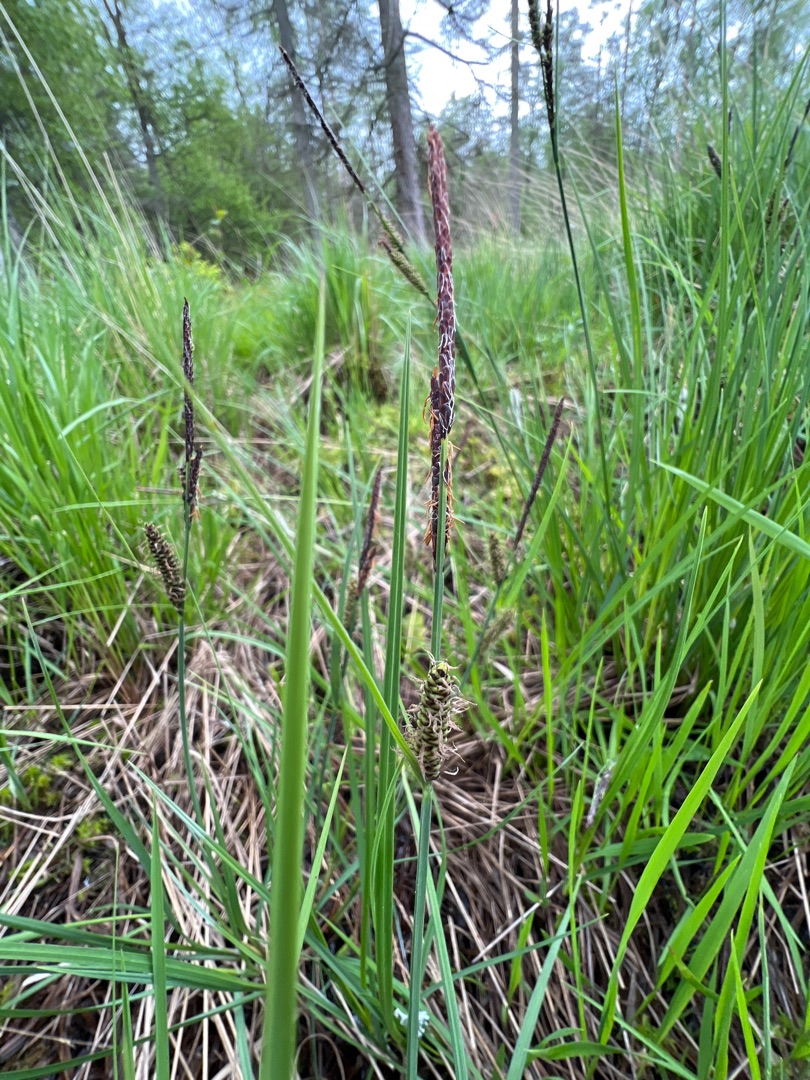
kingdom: Plantae
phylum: Tracheophyta
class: Liliopsida
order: Poales
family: Cyperaceae
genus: Carex
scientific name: Carex nigra
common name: Almindelig star
